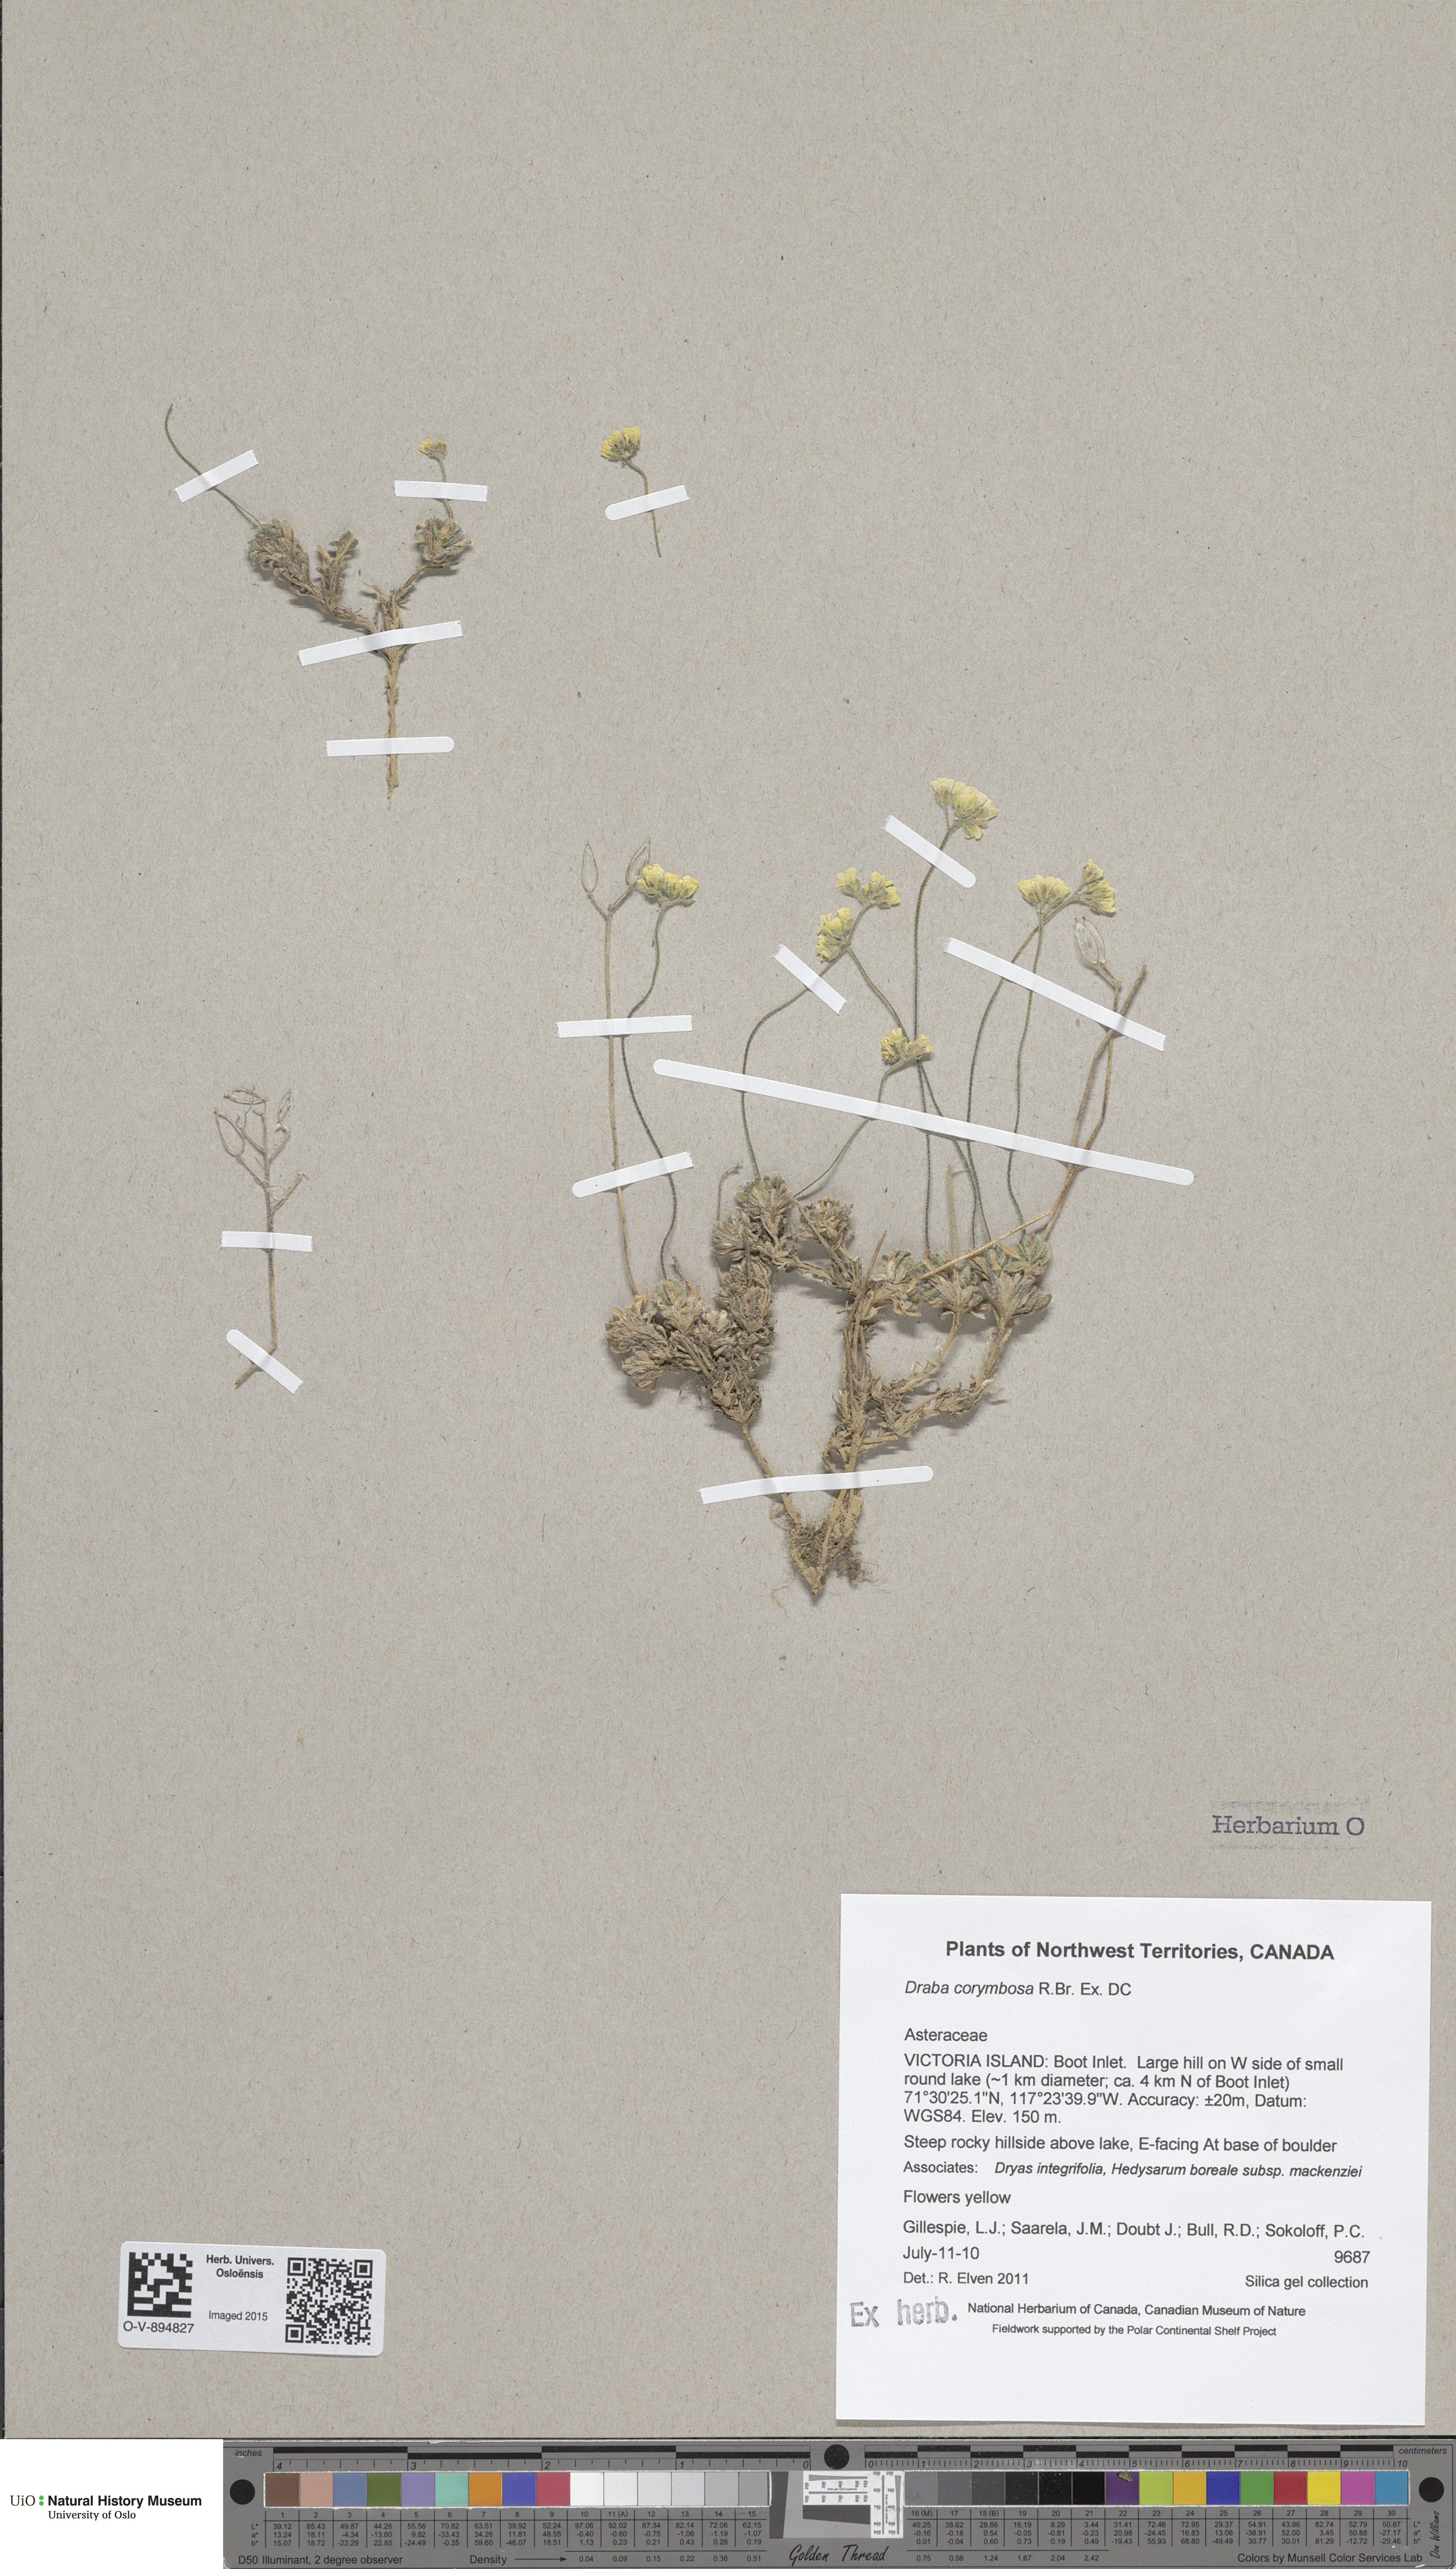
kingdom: Plantae
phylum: Tracheophyta
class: Magnoliopsida
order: Brassicales
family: Brassicaceae
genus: Draba
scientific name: Draba corymbosa
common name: Cushion whitlow-grass
